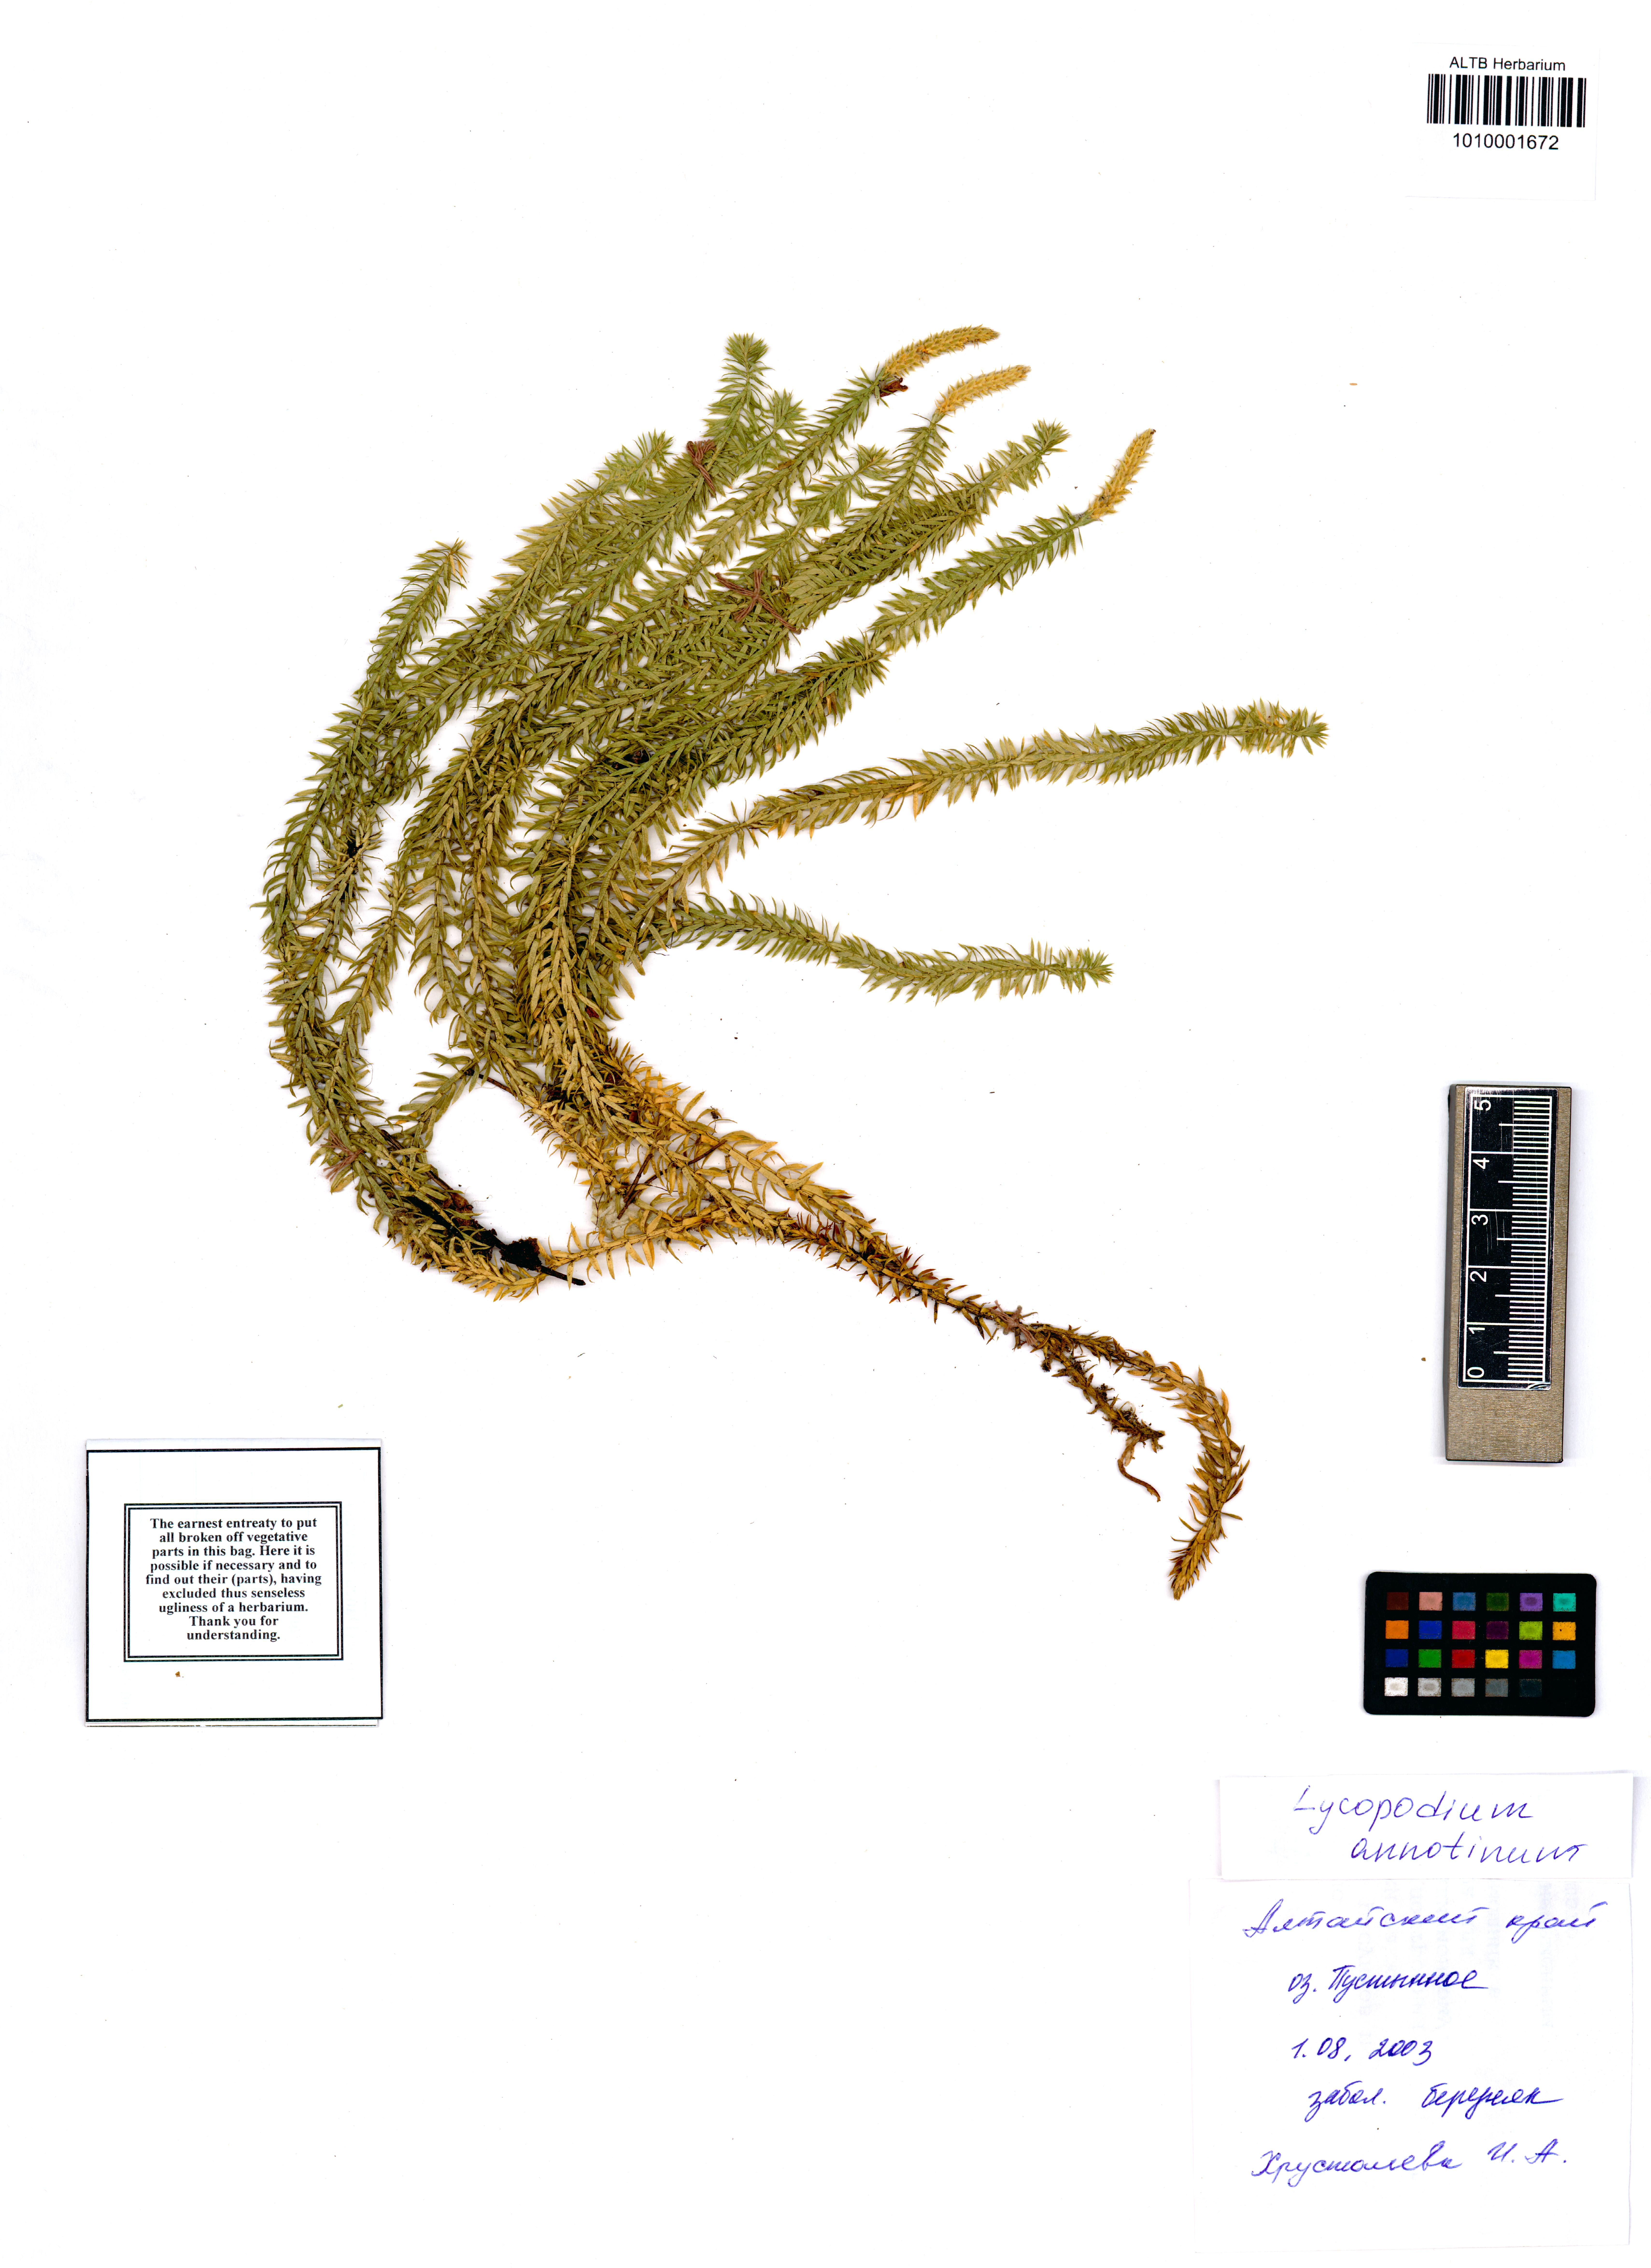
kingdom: Plantae
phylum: Tracheophyta
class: Lycopodiopsida
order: Lycopodiales
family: Lycopodiaceae
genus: Spinulum
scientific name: Spinulum annotinum
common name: Interrupted club-moss
